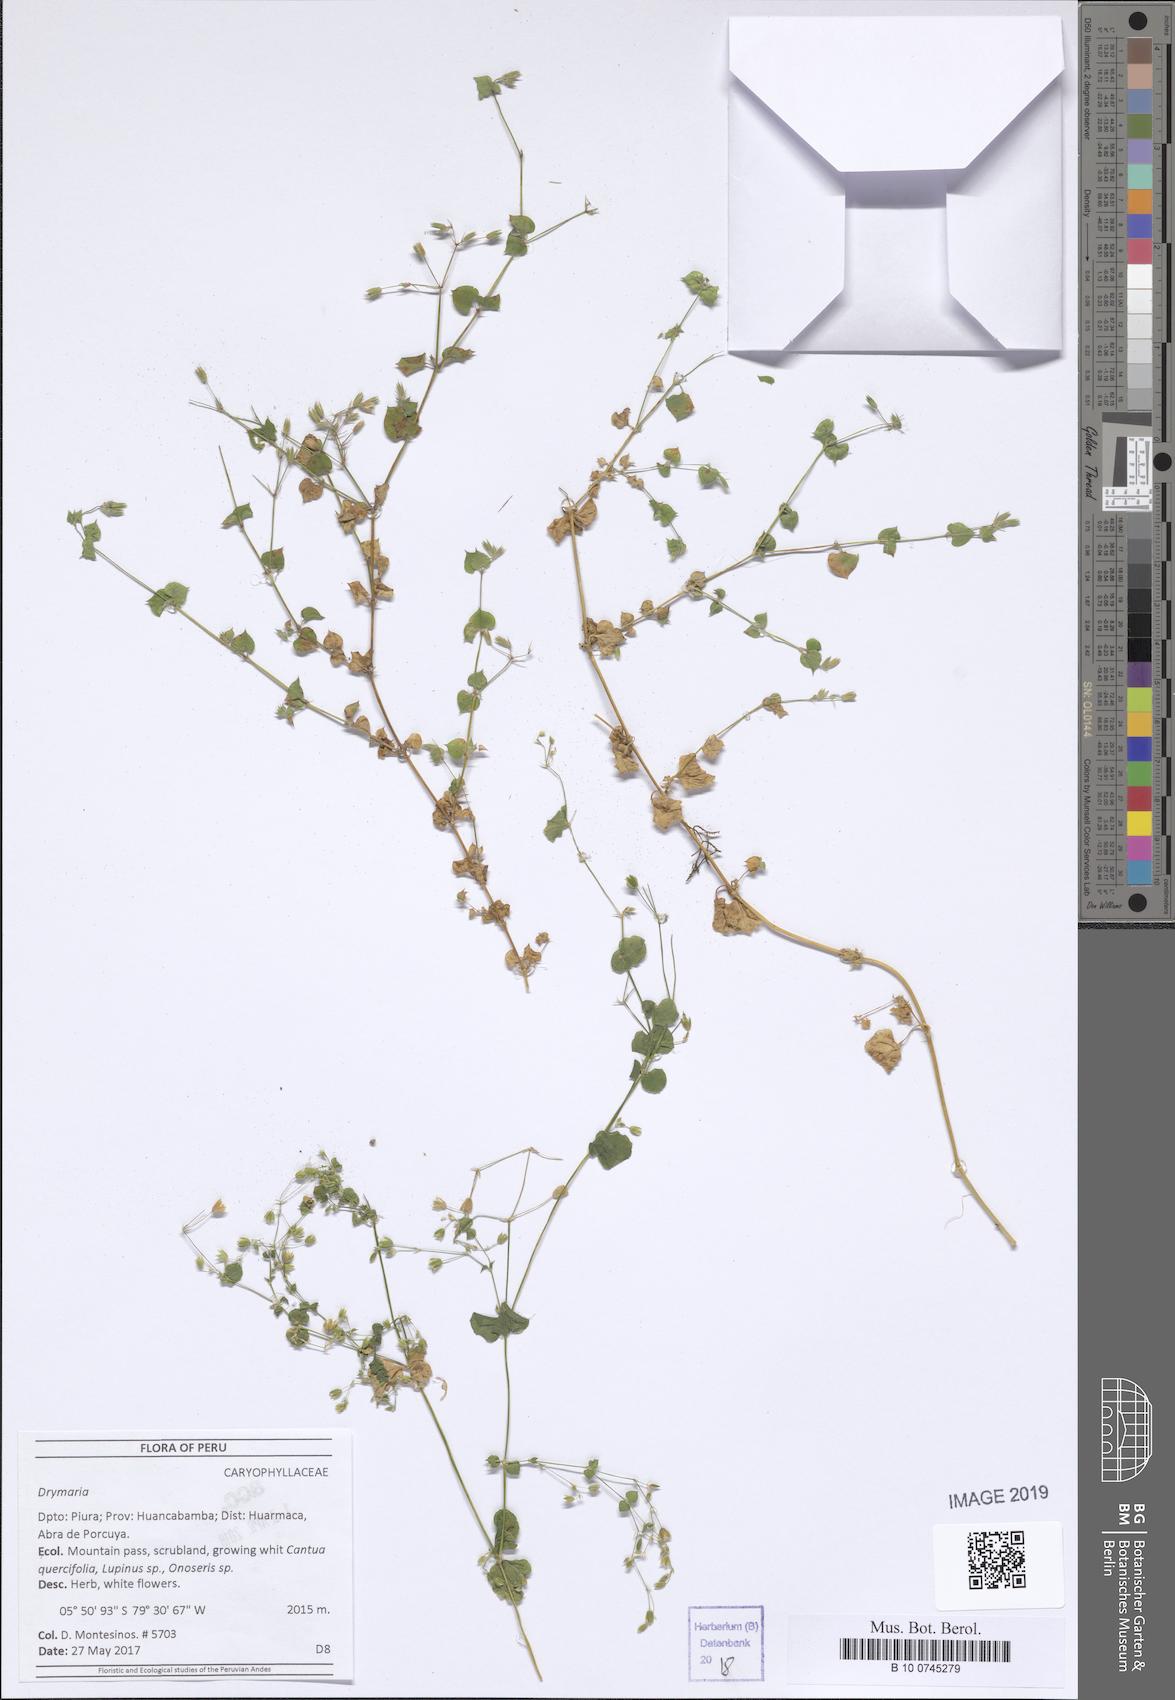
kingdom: Plantae
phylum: Tracheophyta
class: Magnoliopsida
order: Caryophyllales
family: Caryophyllaceae
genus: Drymaria
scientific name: Drymaria
